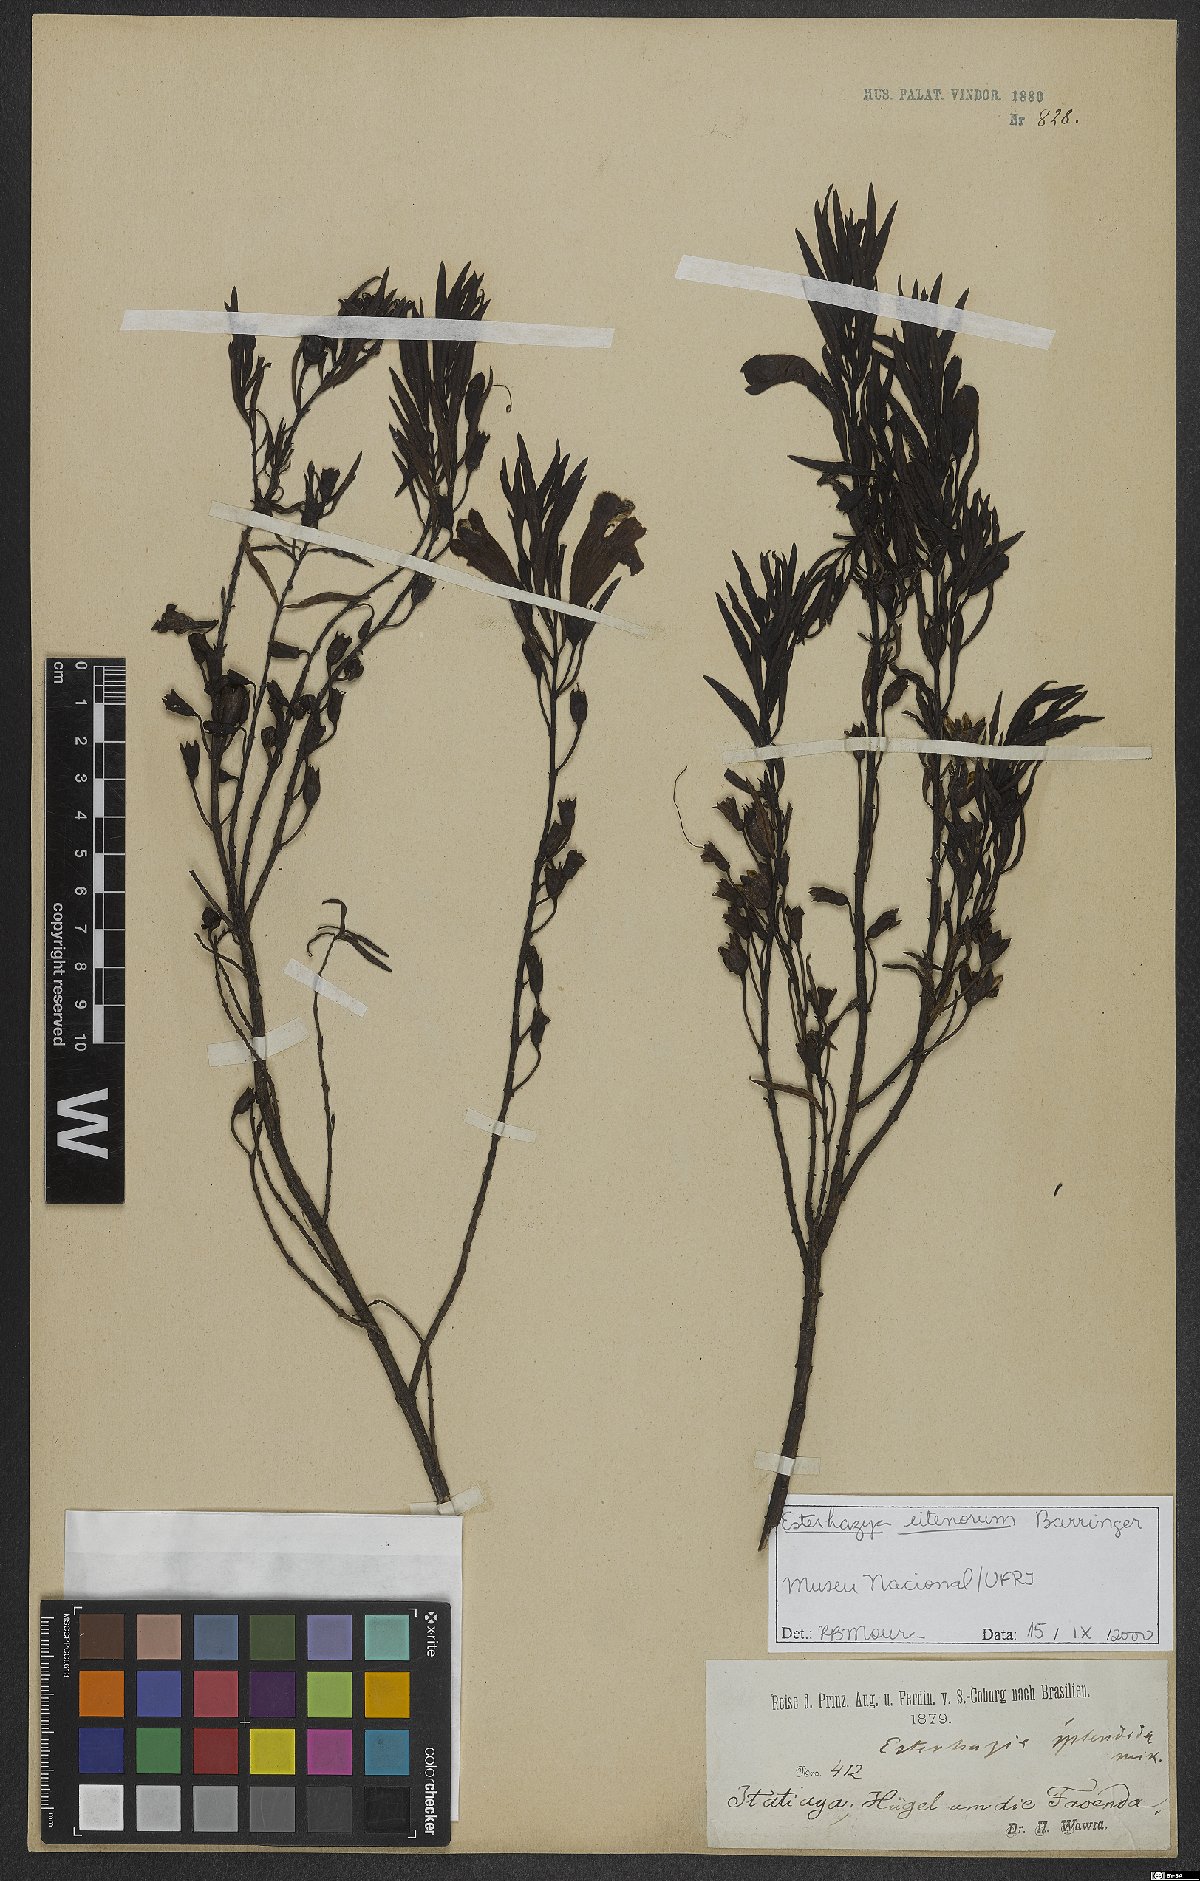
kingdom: Plantae
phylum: Tracheophyta
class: Magnoliopsida
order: Lamiales
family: Orobanchaceae
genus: Esterhazya
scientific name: Esterhazya eitenorum
